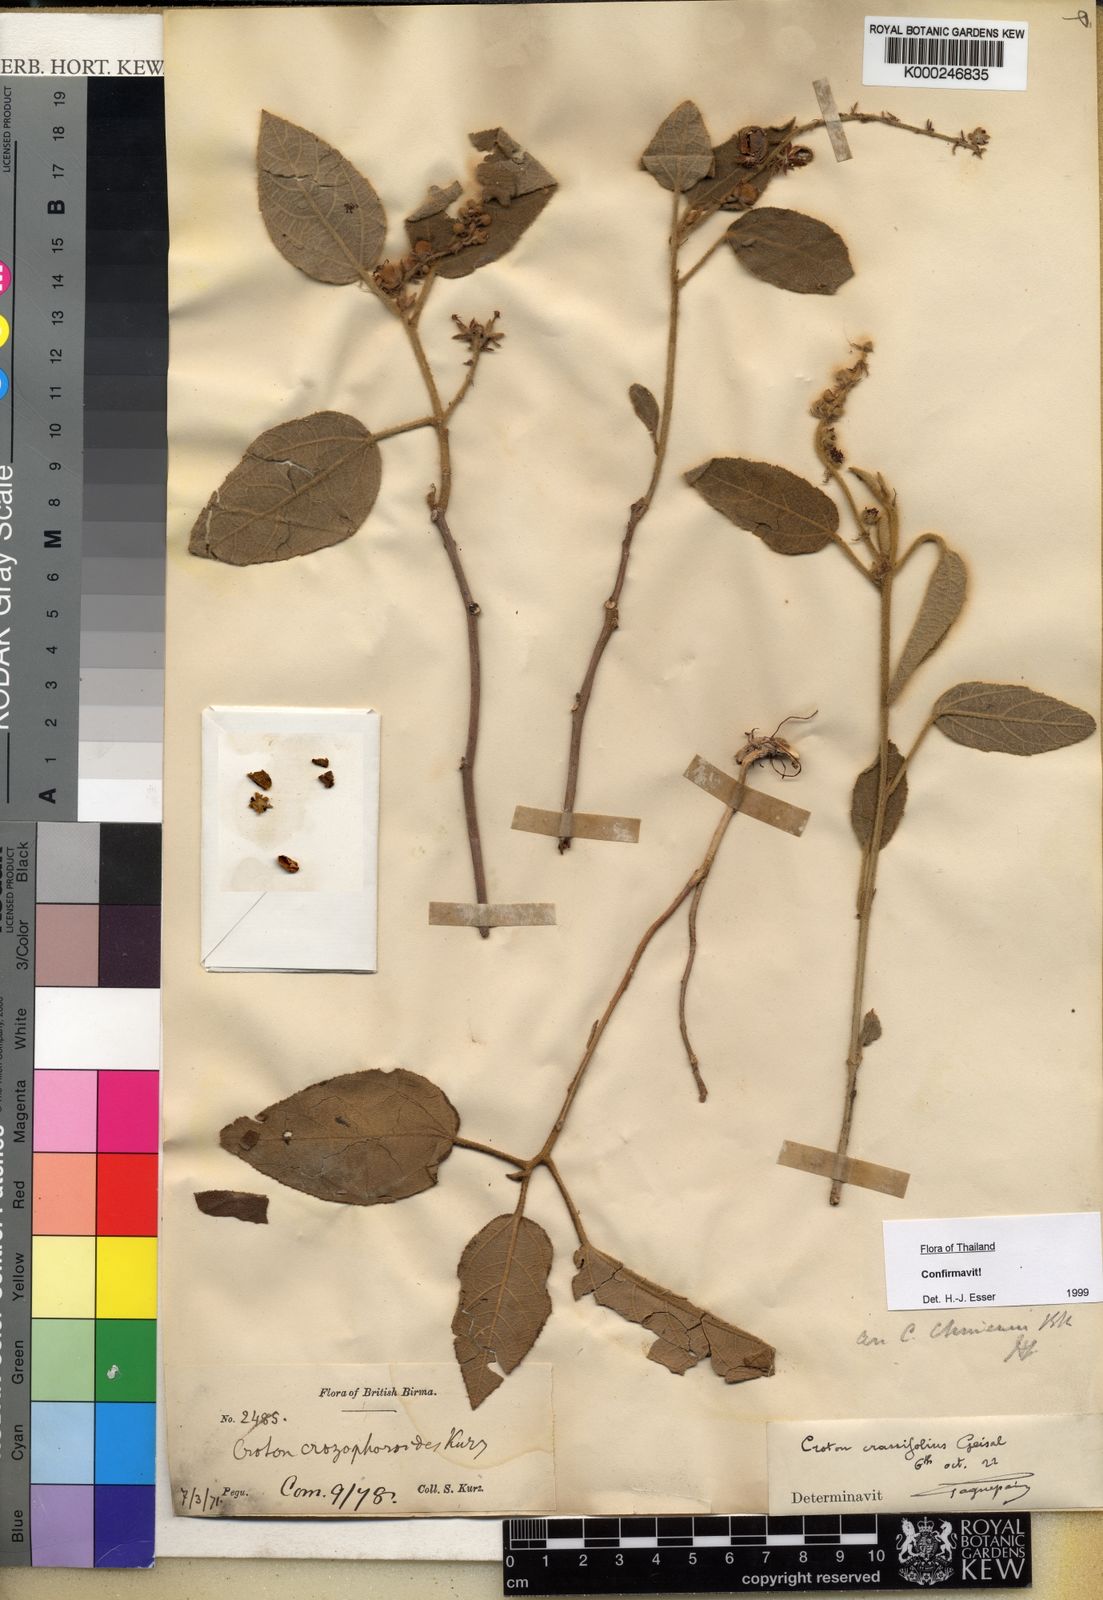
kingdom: Plantae
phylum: Tracheophyta
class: Magnoliopsida
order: Malpighiales
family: Euphorbiaceae
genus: Croton
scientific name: Croton crassifolius
